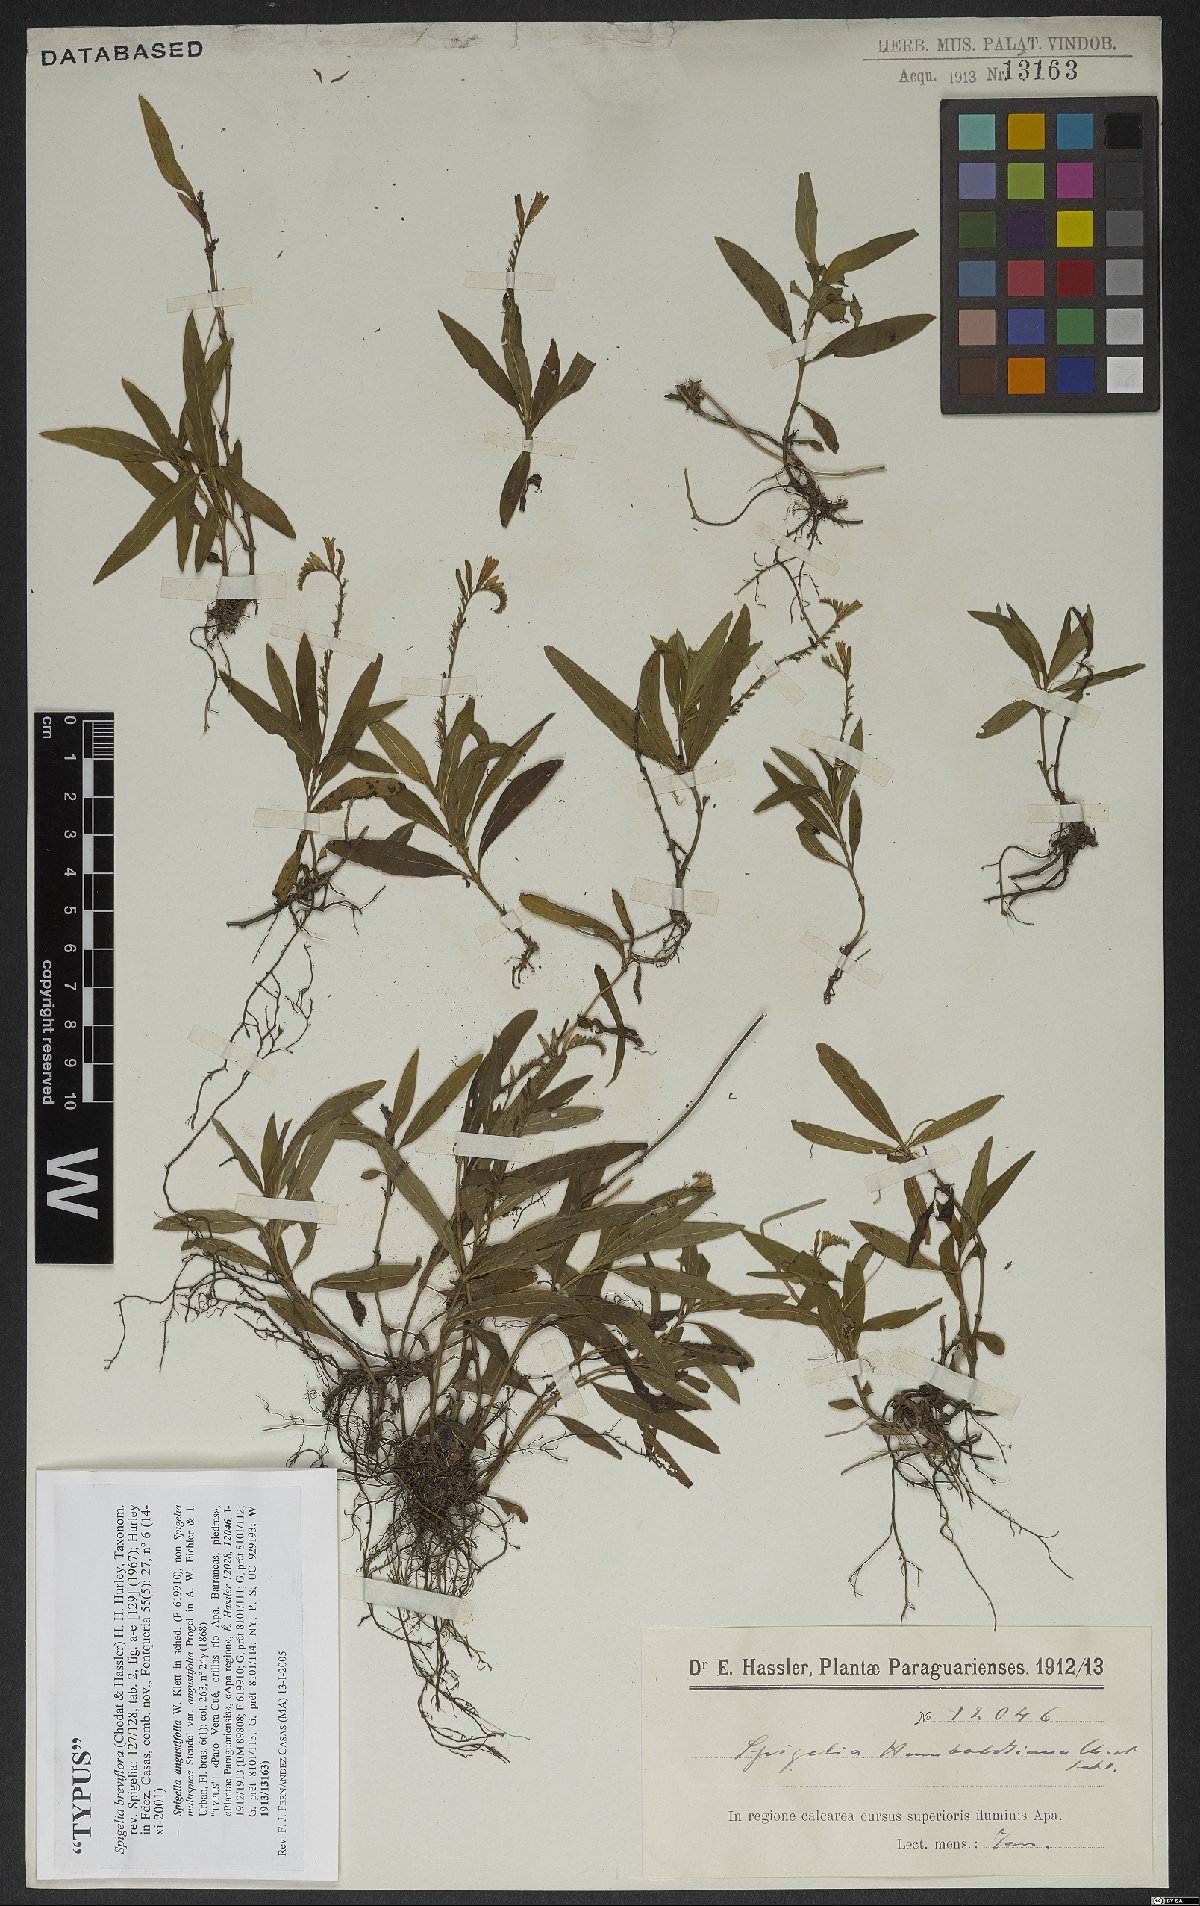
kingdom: Plantae
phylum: Tracheophyta
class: Magnoliopsida
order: Gentianales
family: Loganiaceae
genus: Spigelia
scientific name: Spigelia breviflora
